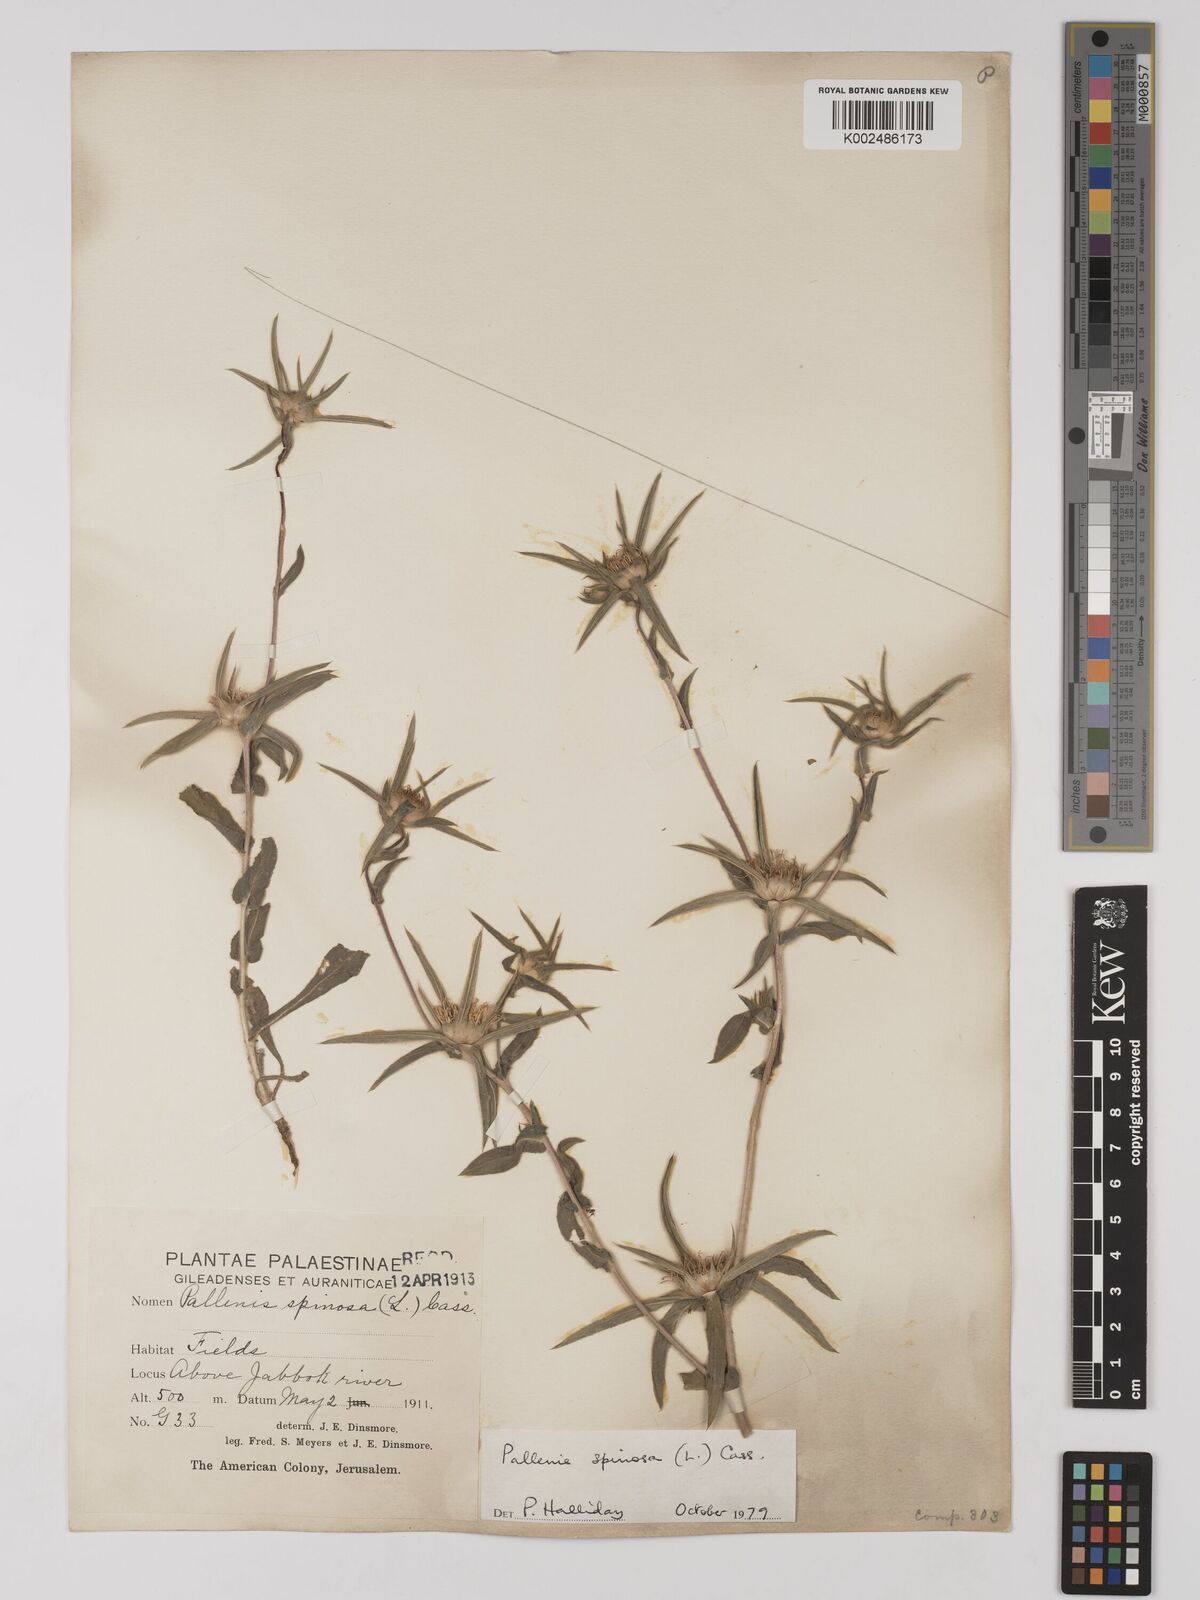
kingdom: Plantae
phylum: Tracheophyta
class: Magnoliopsida
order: Asterales
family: Asteraceae
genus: Pallenis
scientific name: Pallenis spinosa
